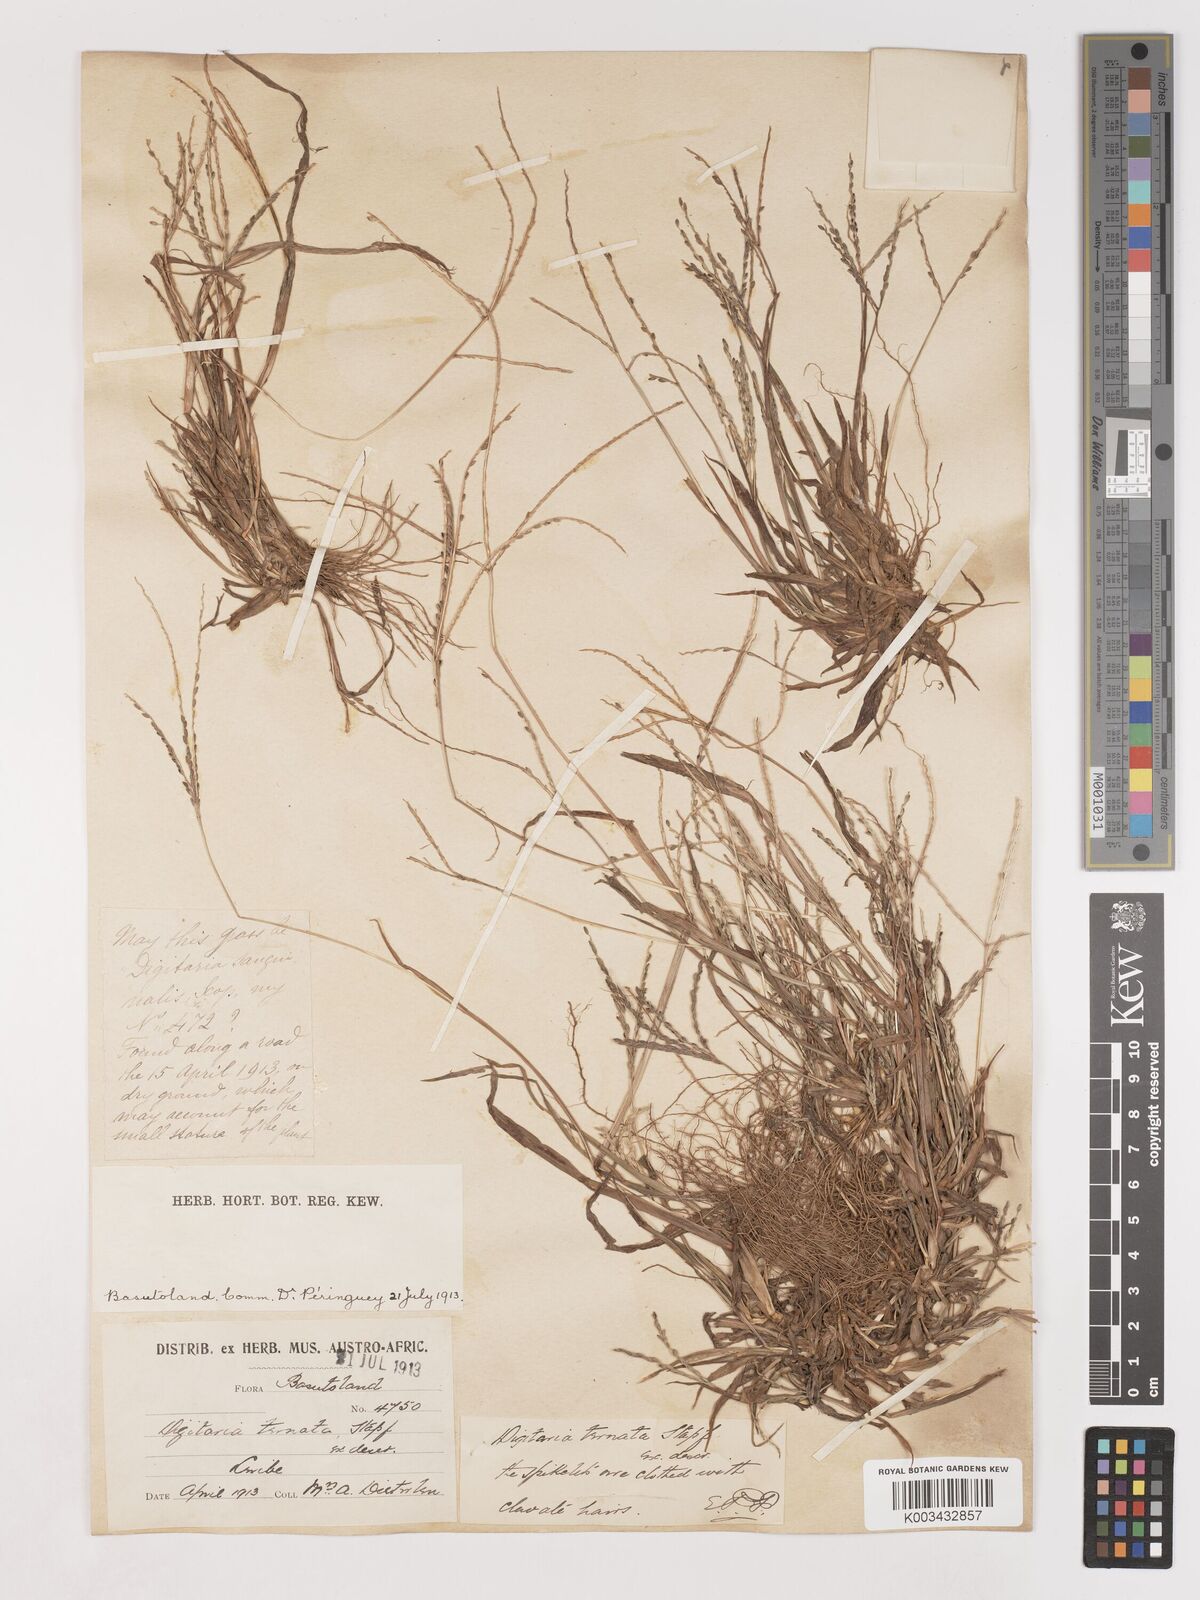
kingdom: Plantae
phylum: Tracheophyta
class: Liliopsida
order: Poales
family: Poaceae
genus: Digitaria
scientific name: Digitaria ternata
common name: Blackseed crabgrass
